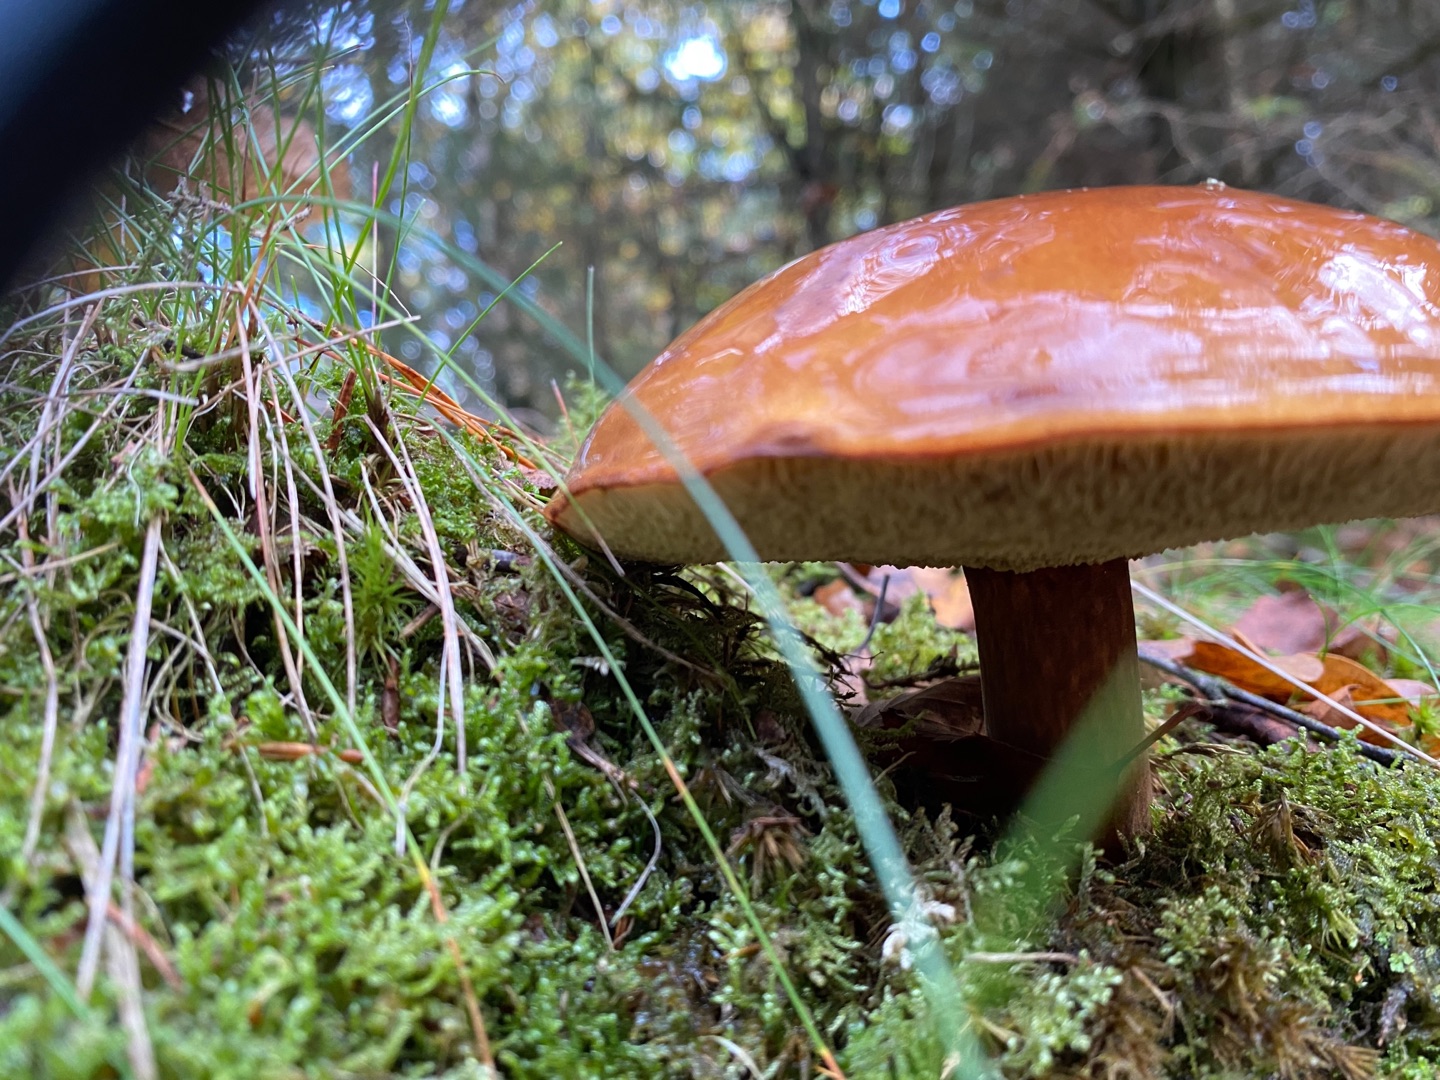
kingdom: Fungi
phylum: Basidiomycota
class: Agaricomycetes
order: Boletales
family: Boletaceae
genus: Imleria
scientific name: Imleria badia
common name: Brunstokket rørhat
